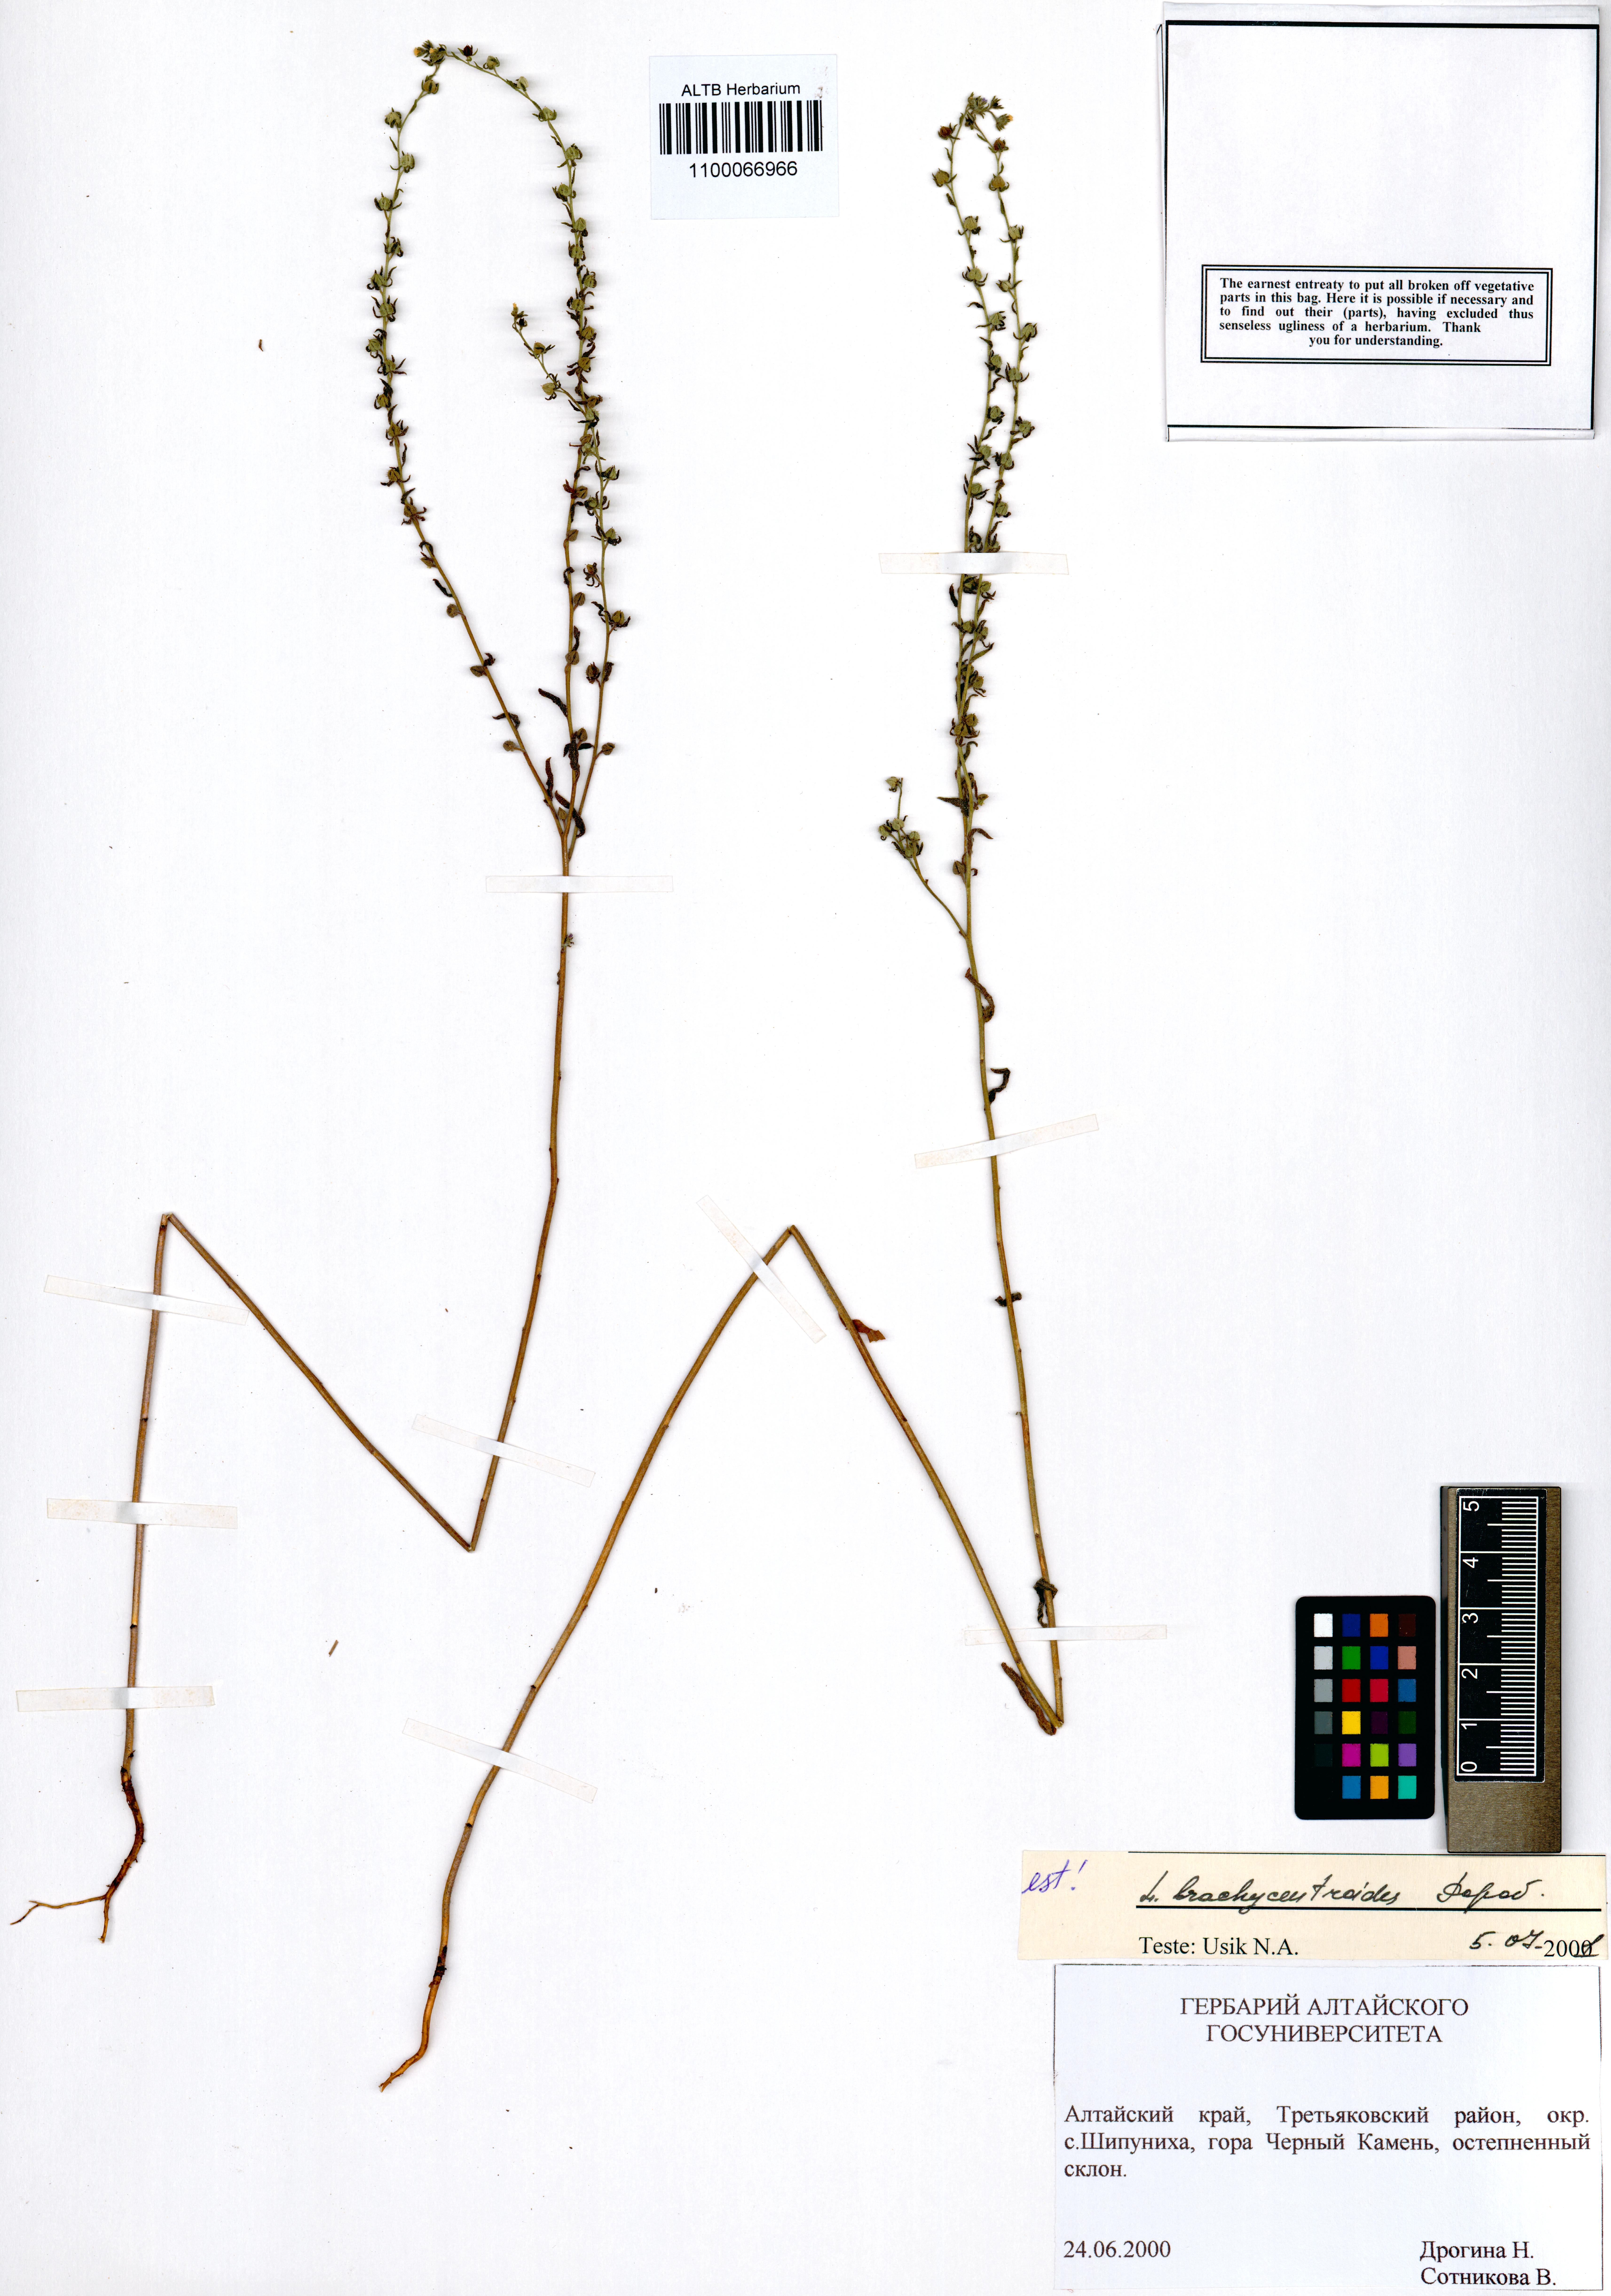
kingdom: Plantae
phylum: Tracheophyta
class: Magnoliopsida
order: Boraginales
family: Boraginaceae
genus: Lappula
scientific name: Lappula brachycentroides
